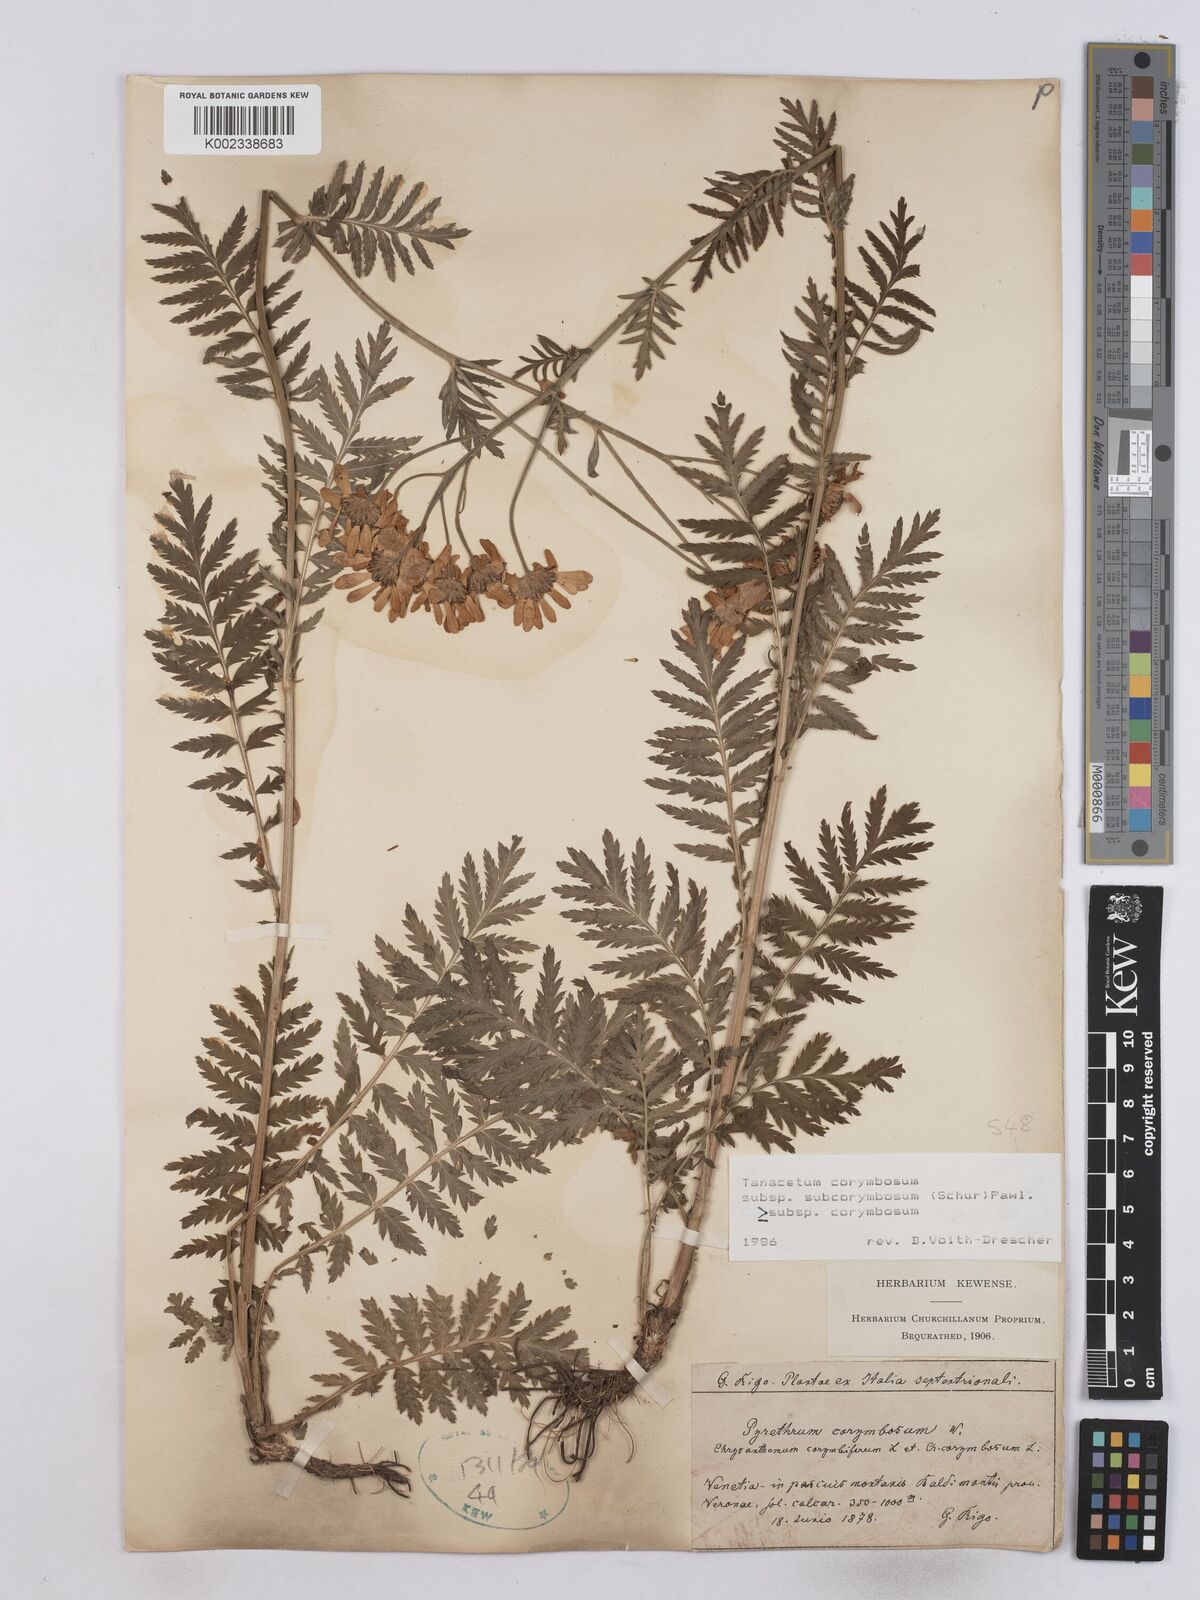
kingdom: Plantae
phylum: Tracheophyta
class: Magnoliopsida
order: Asterales
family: Asteraceae
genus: Tanacetum
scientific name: Tanacetum corymbosum
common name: Scentless feverfew
